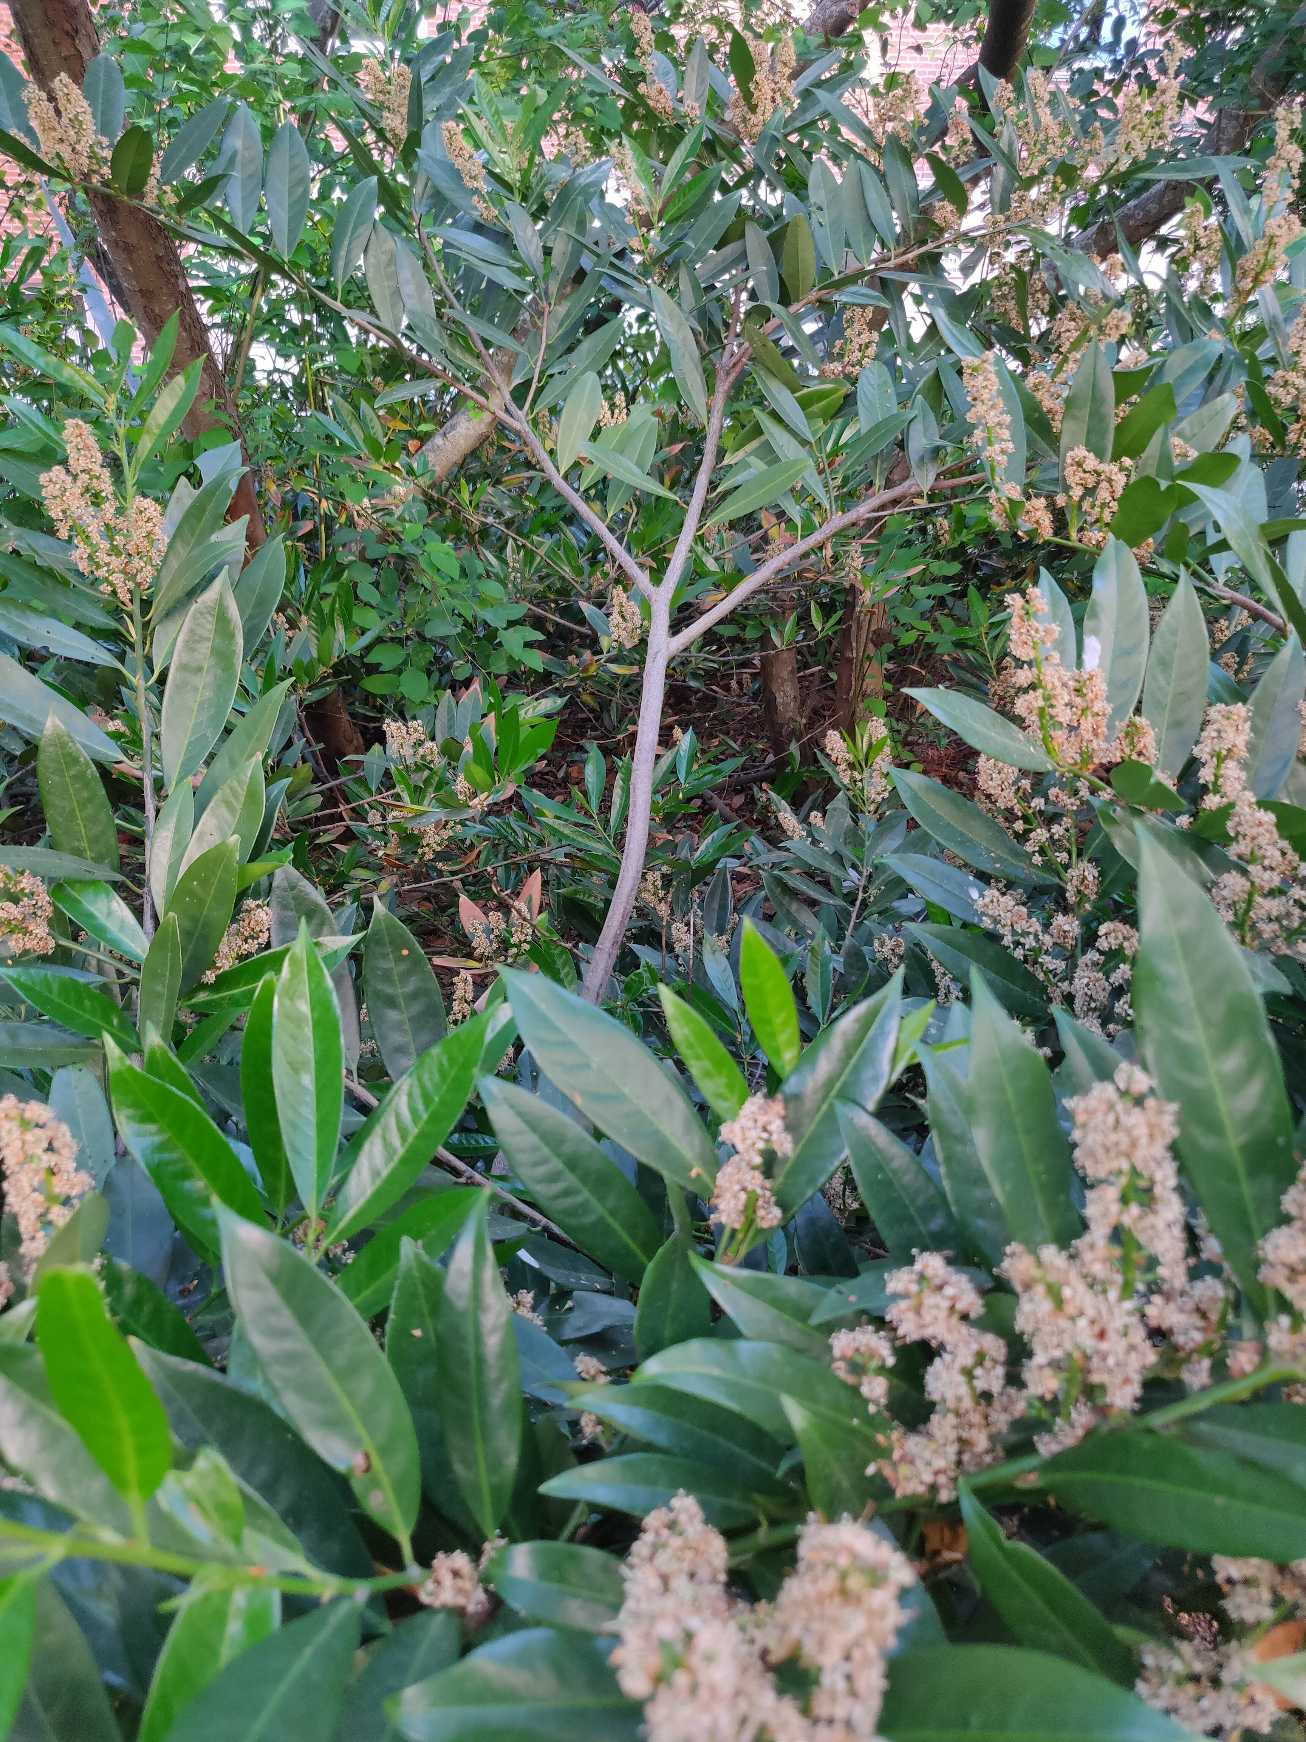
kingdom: Plantae
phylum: Tracheophyta
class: Magnoliopsida
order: Rosales
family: Rosaceae
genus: Prunus
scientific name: Prunus laurocerasus
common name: Laurbærkirsebær
